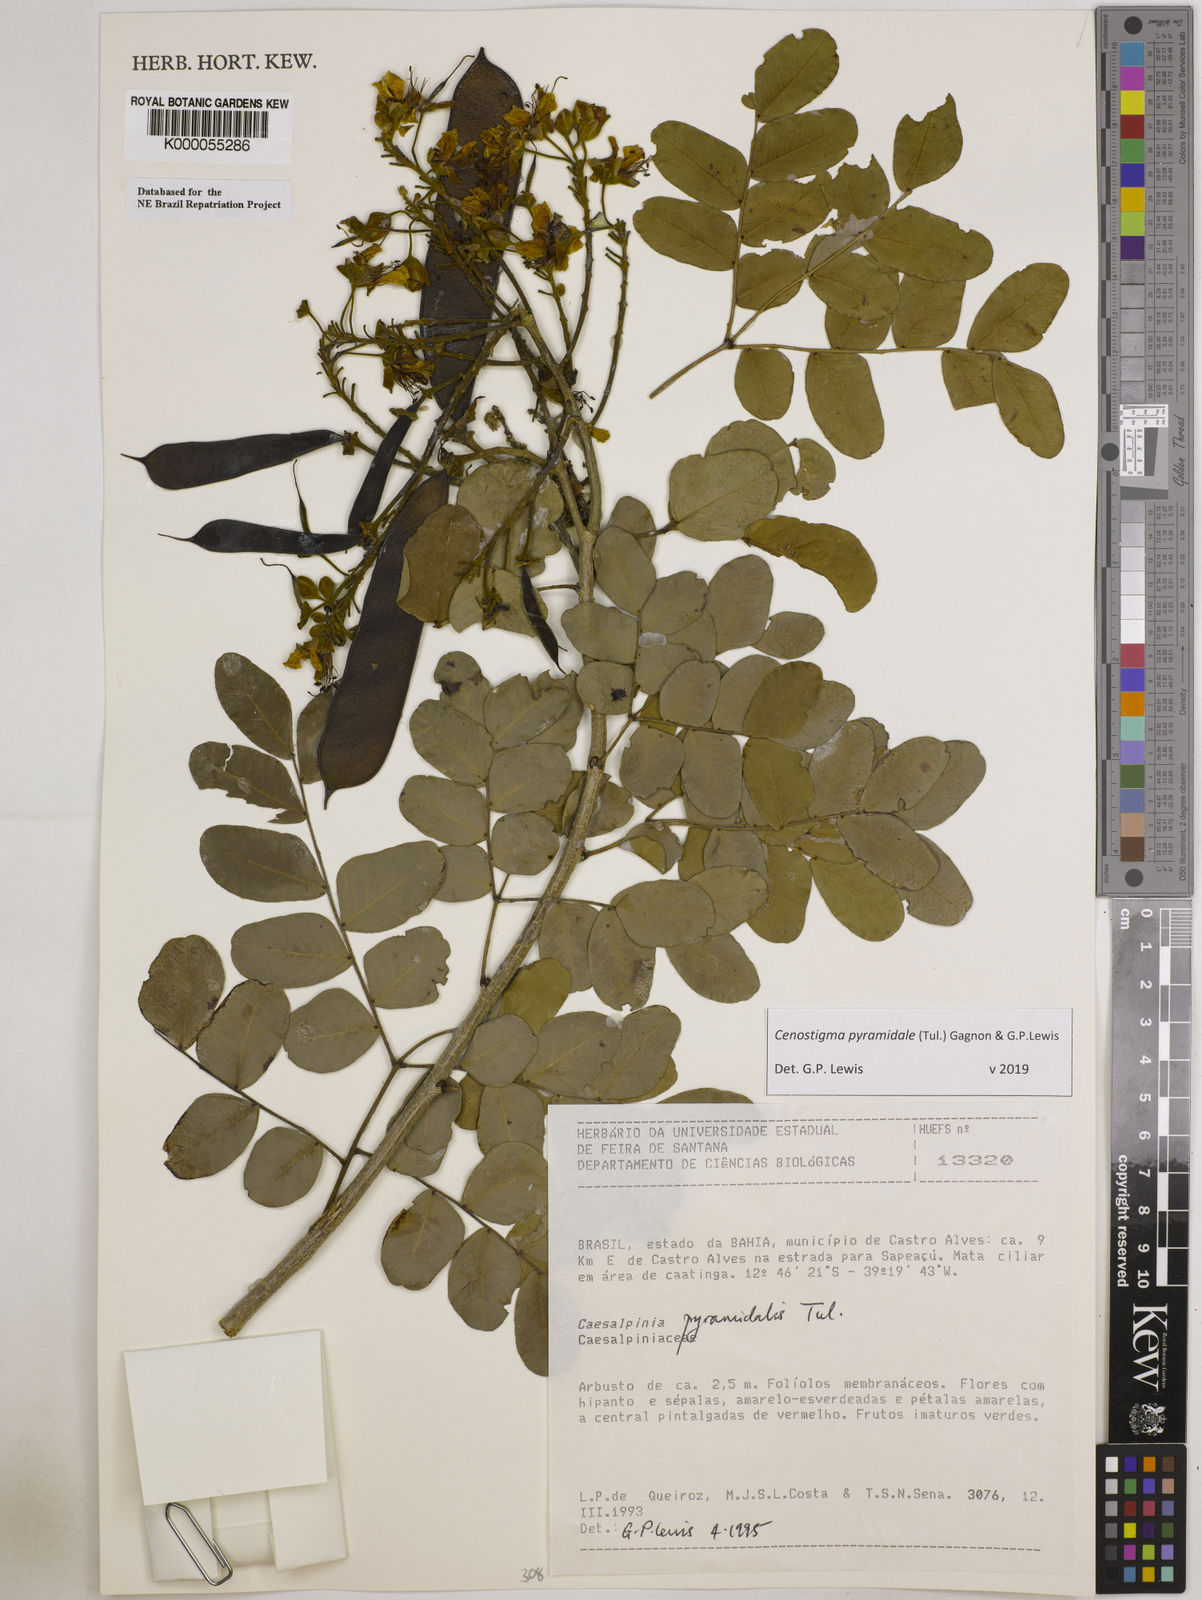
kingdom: Plantae
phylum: Tracheophyta
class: Magnoliopsida
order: Fabales
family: Fabaceae
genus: Cenostigma
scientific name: Cenostigma pyramidale
